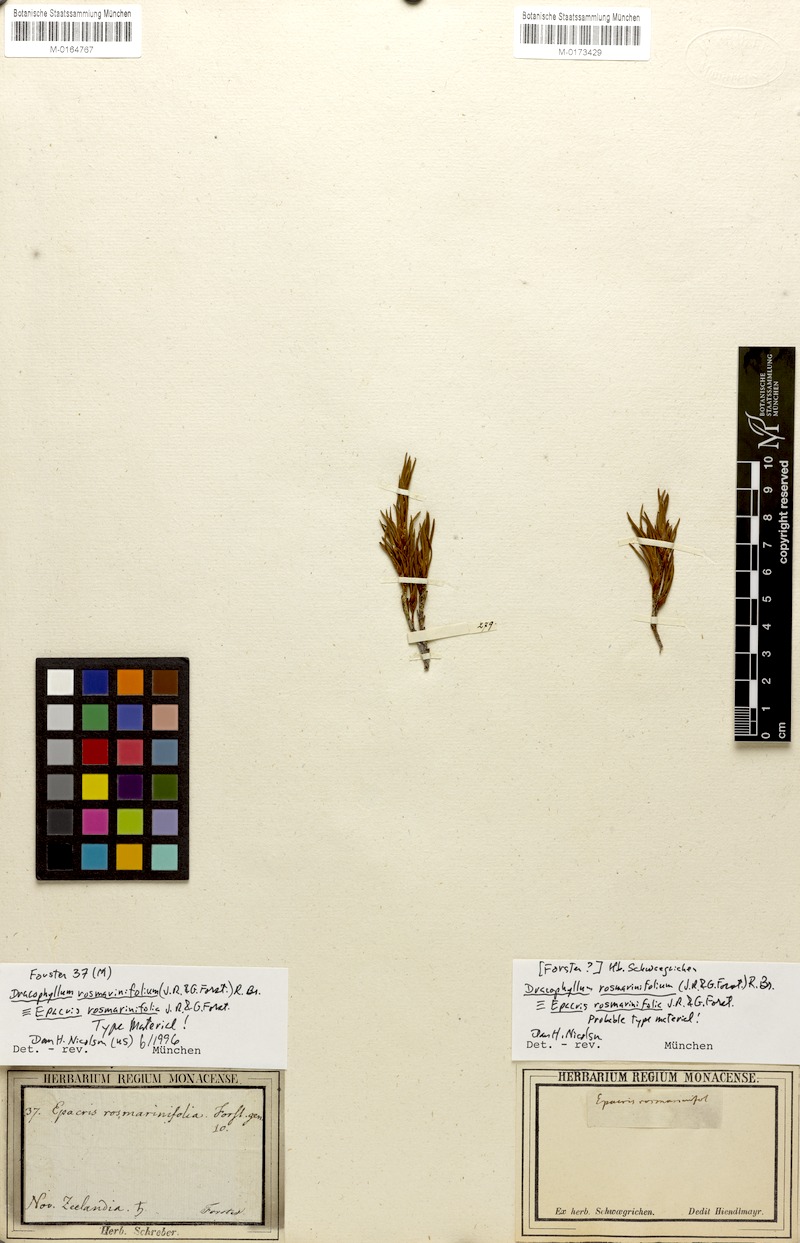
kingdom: Plantae
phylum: Tracheophyta
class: Magnoliopsida
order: Ericales
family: Ericaceae
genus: Dracophyllum
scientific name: Dracophyllum rosmarinifolium
